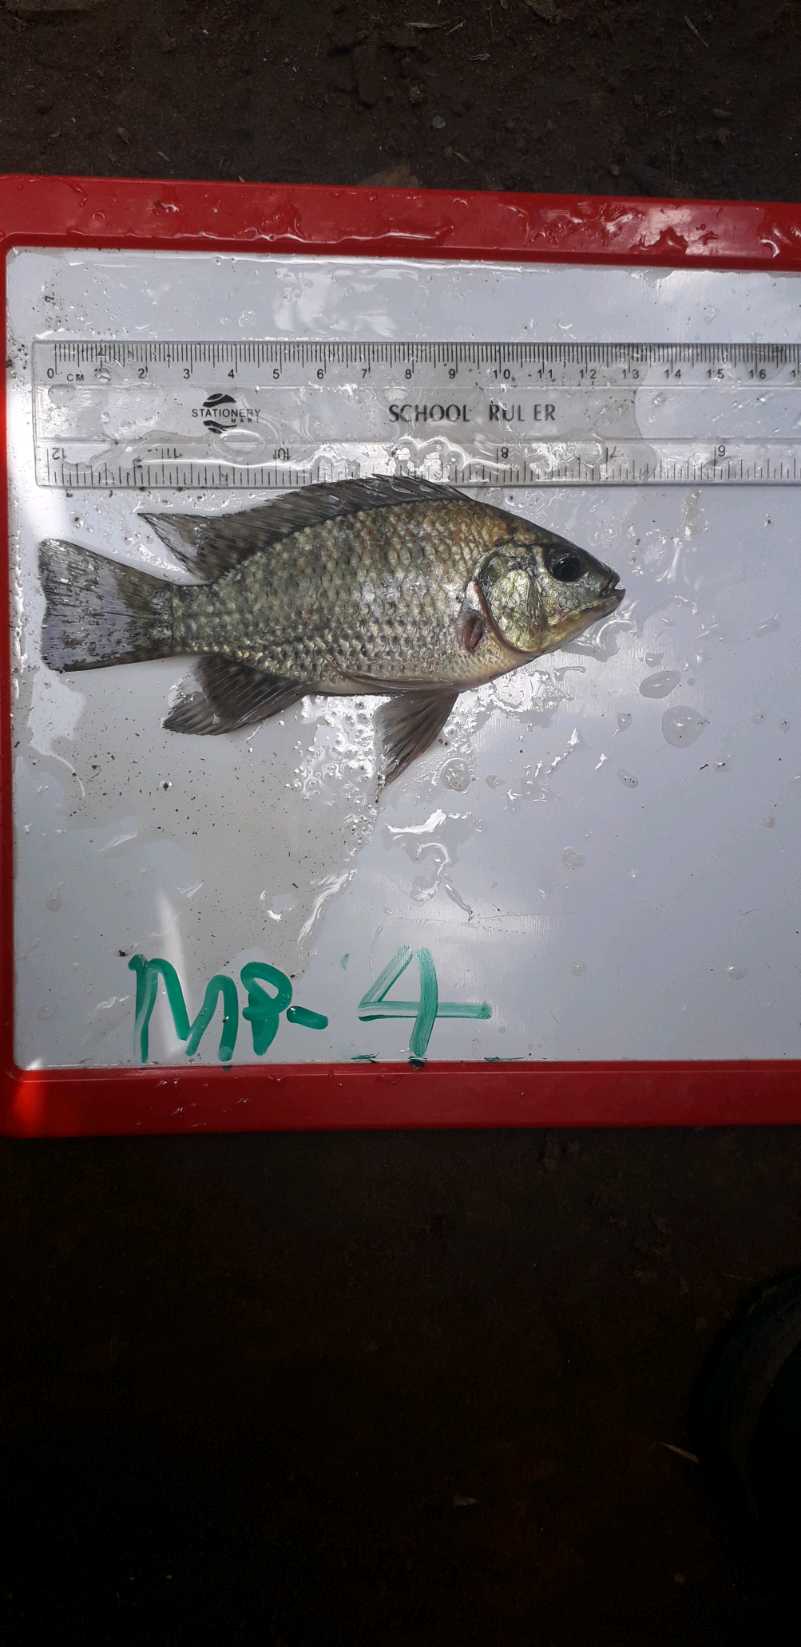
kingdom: Animalia
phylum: Chordata
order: Perciformes
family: Cichlidae
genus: Oreochromis
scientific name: Oreochromis leucostictus
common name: Blue spotted tilapia
